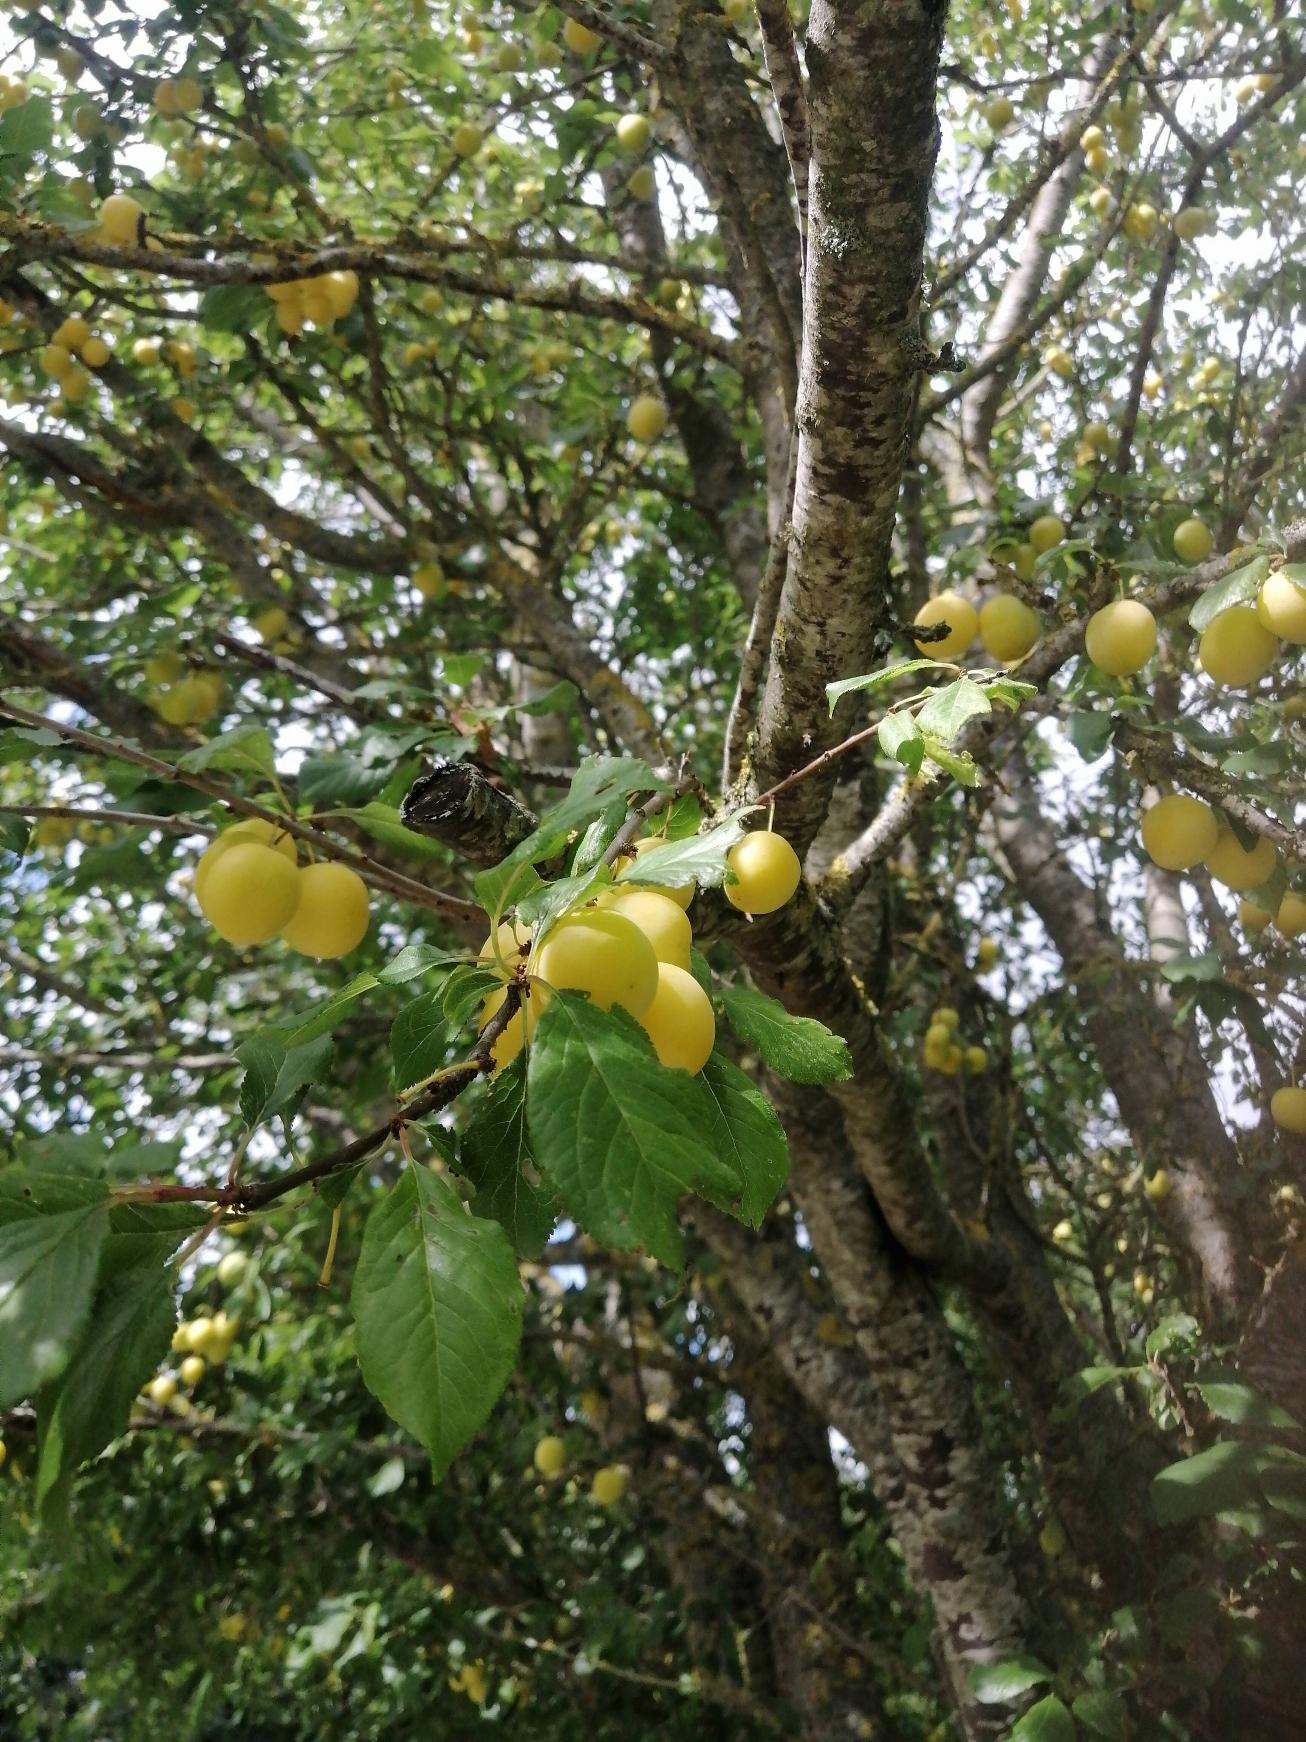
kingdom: Plantae
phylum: Tracheophyta
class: Magnoliopsida
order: Rosales
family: Rosaceae
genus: Prunus
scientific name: Prunus cerasifera
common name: Mirabel
